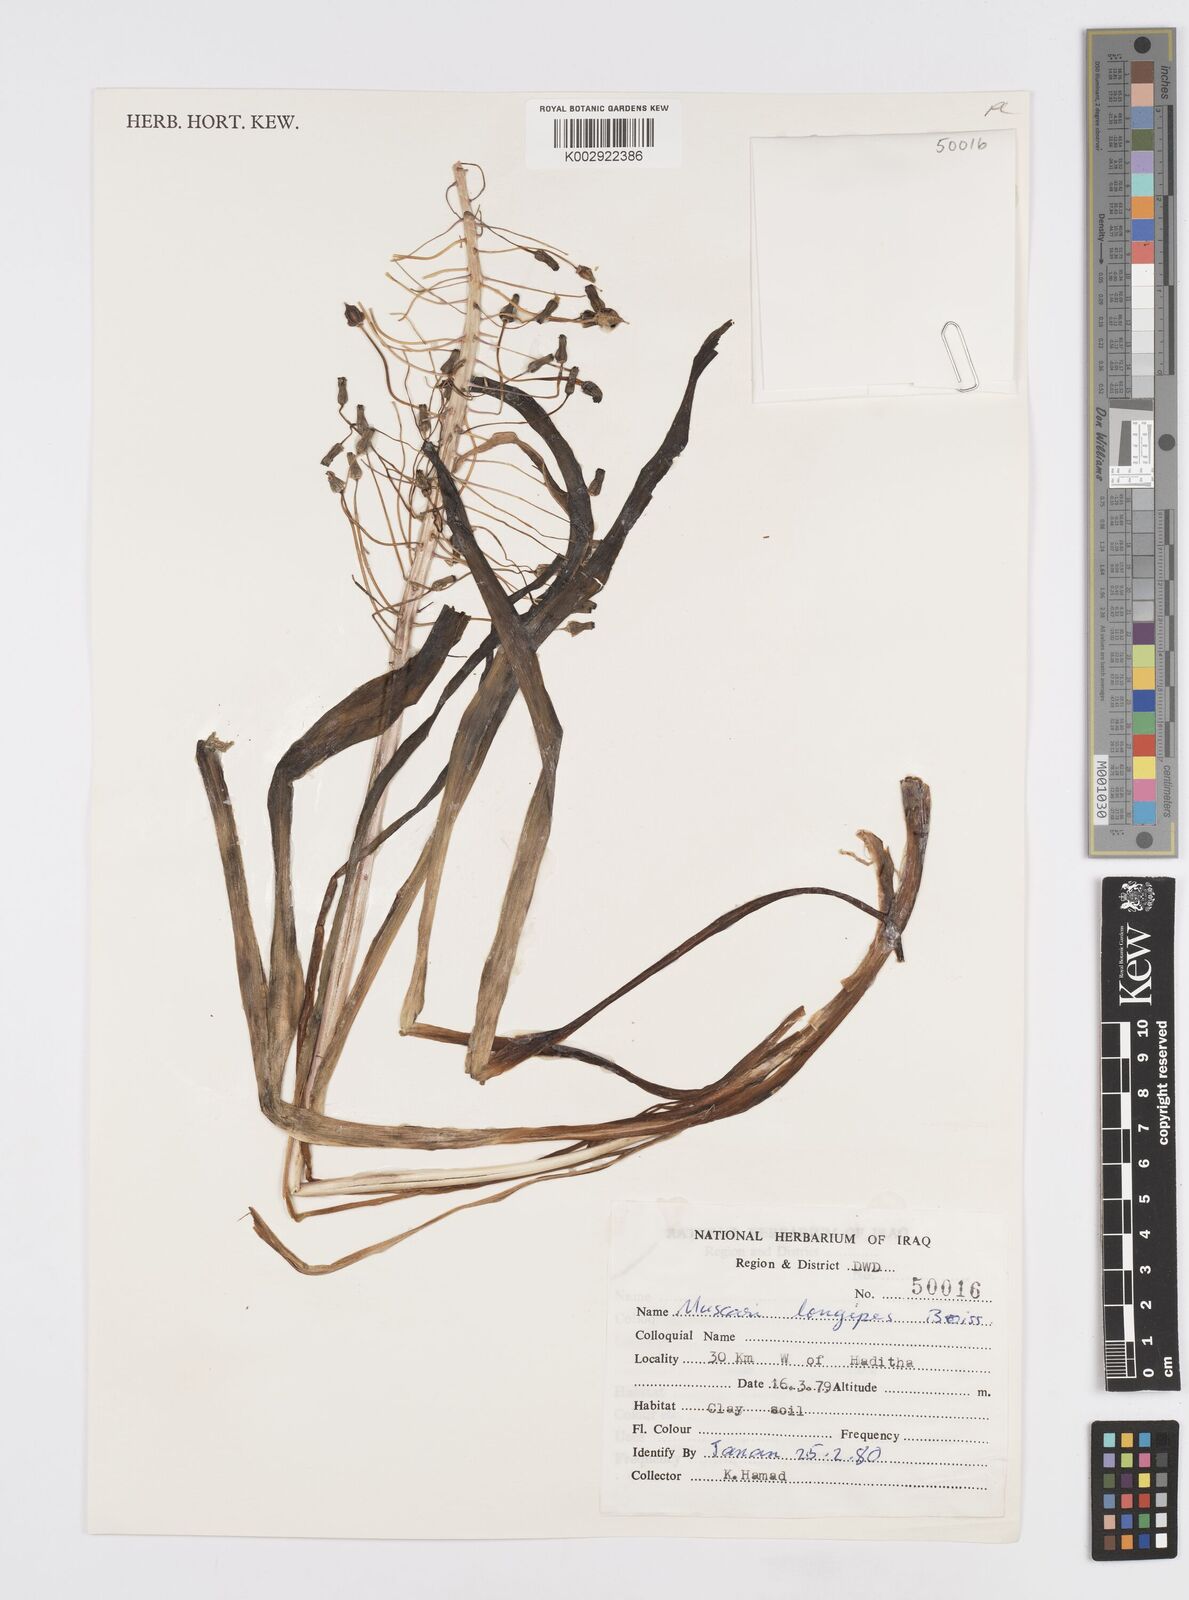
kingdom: Plantae
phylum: Tracheophyta
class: Liliopsida
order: Asparagales
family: Asparagaceae
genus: Muscari
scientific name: Muscari longipes
